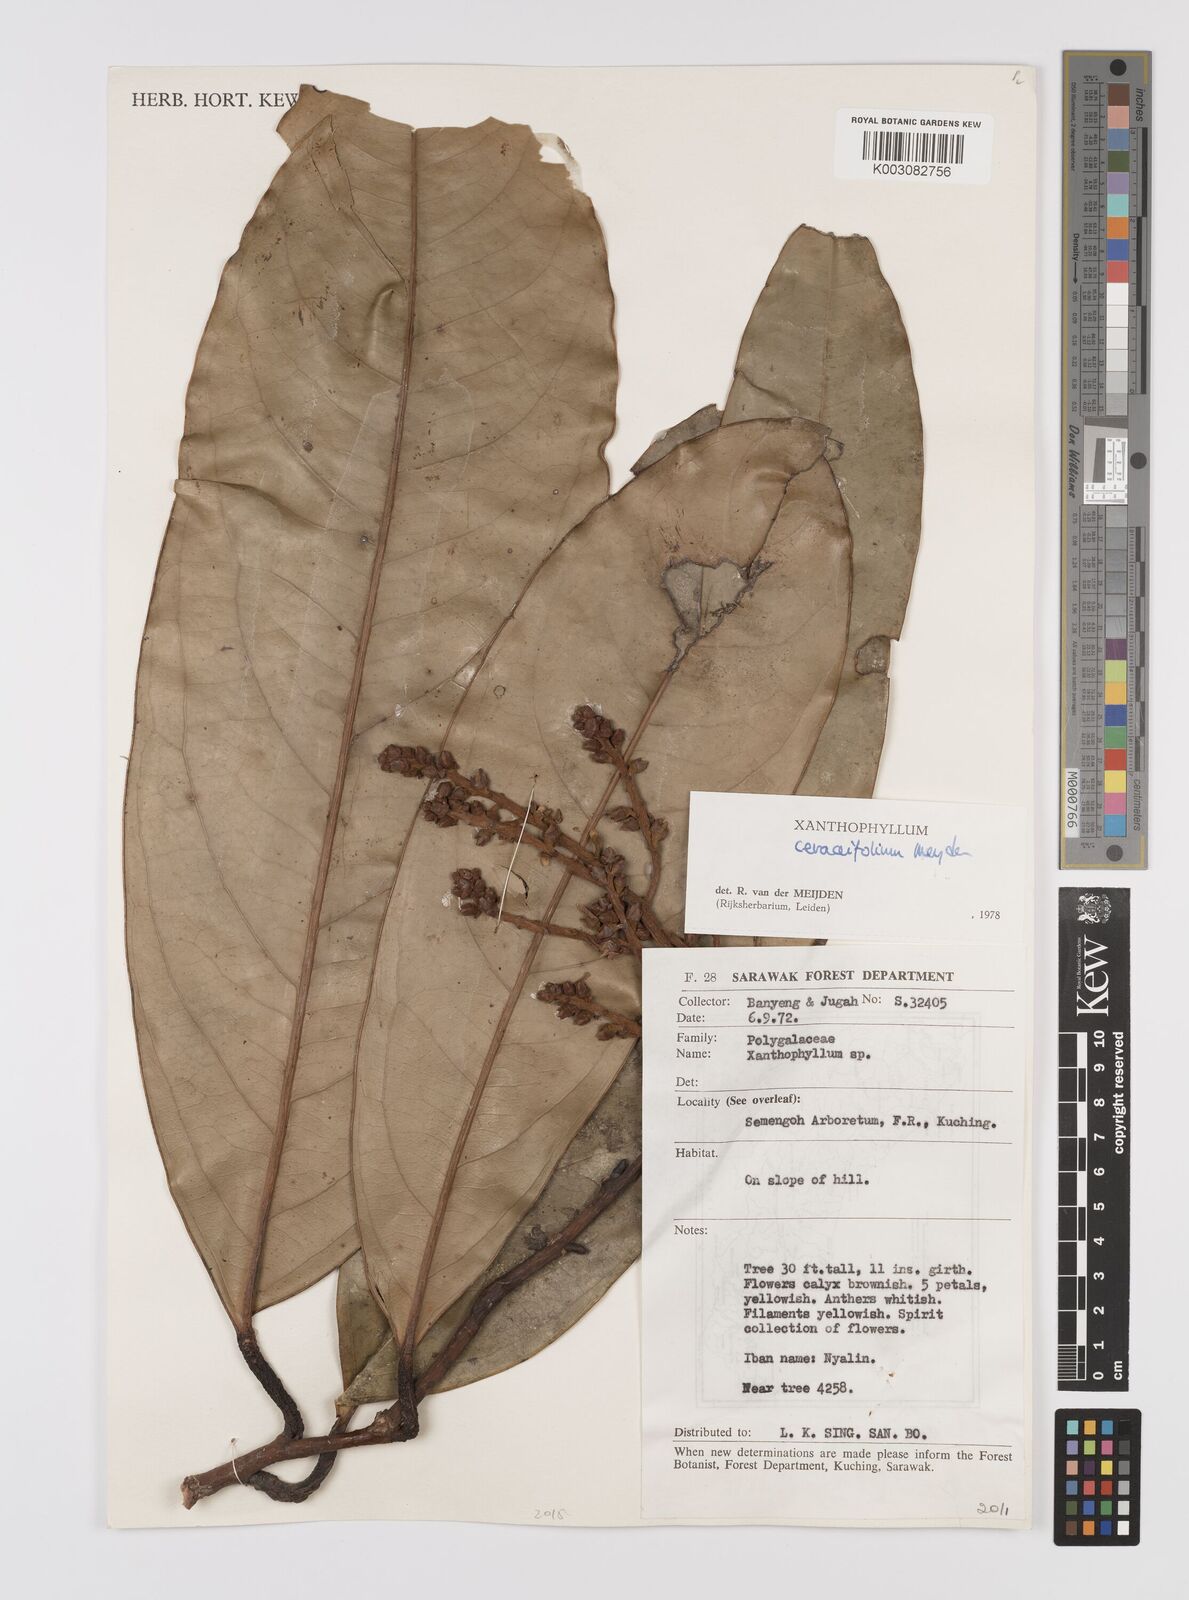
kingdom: Plantae
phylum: Tracheophyta
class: Magnoliopsida
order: Fabales
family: Polygalaceae
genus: Xanthophyllum
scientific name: Xanthophyllum
